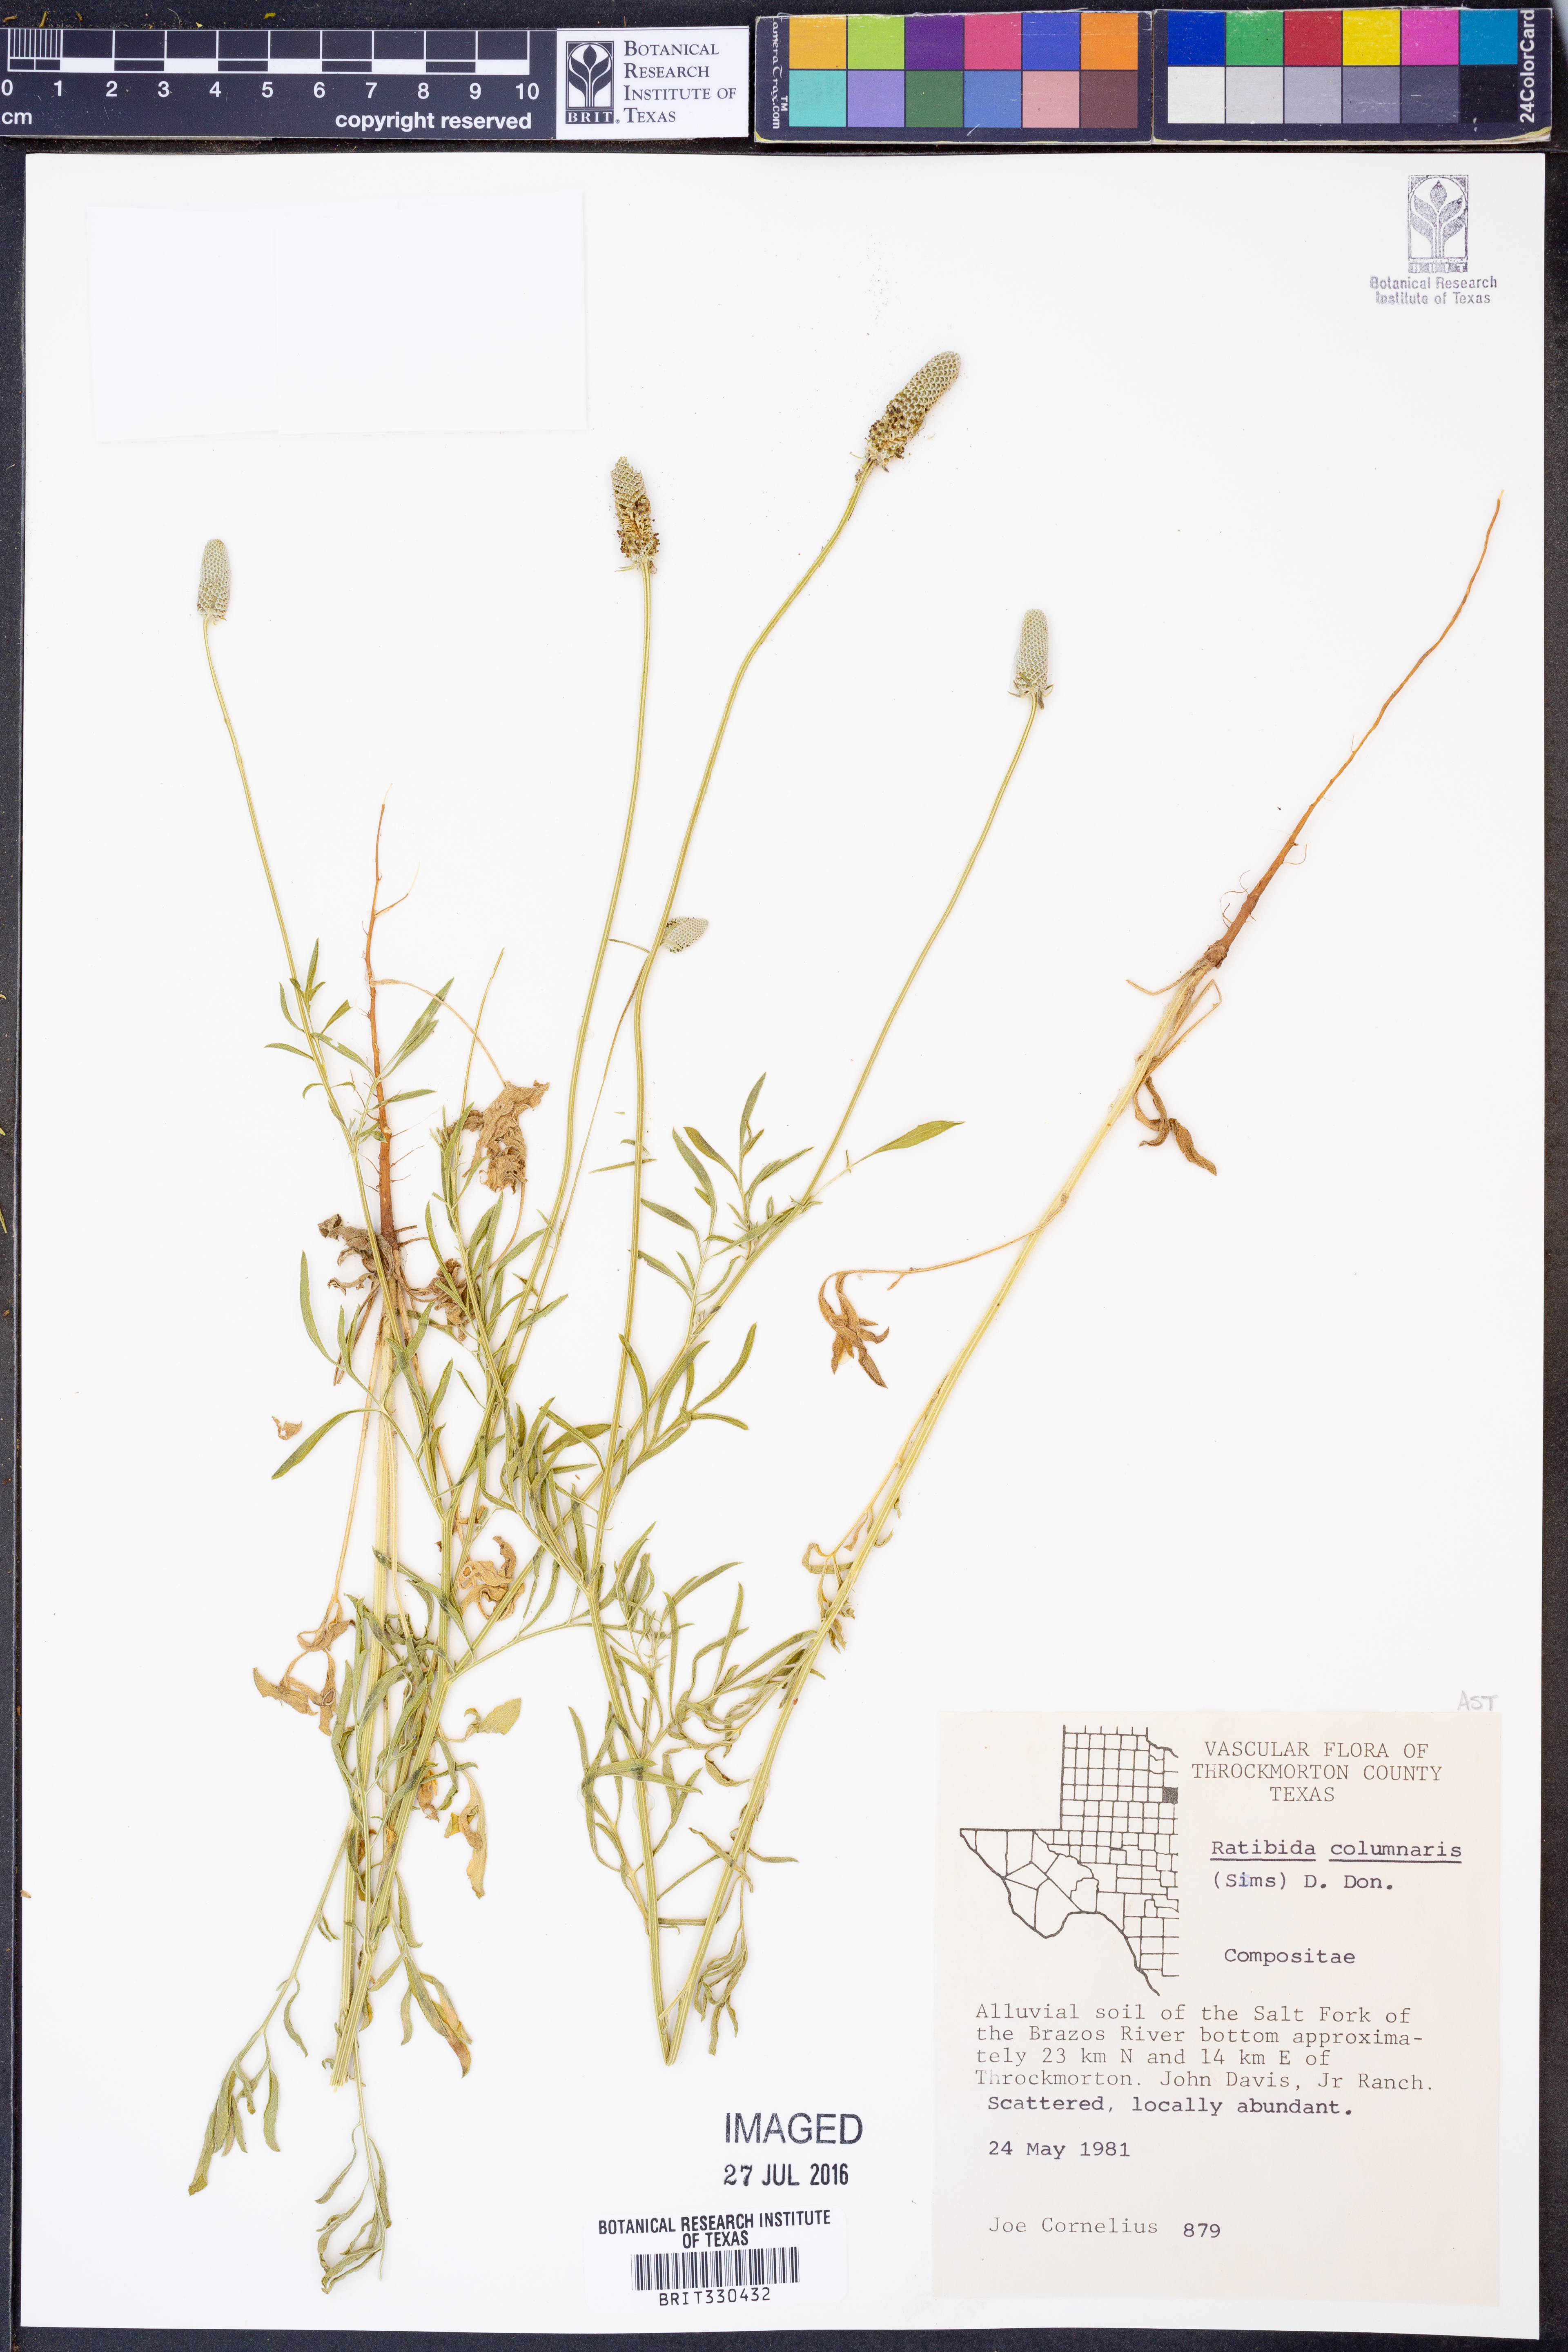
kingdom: Plantae
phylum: Tracheophyta
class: Magnoliopsida
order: Asterales
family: Asteraceae
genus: Ratibida
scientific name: Ratibida columnifera
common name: Prairie coneflower
